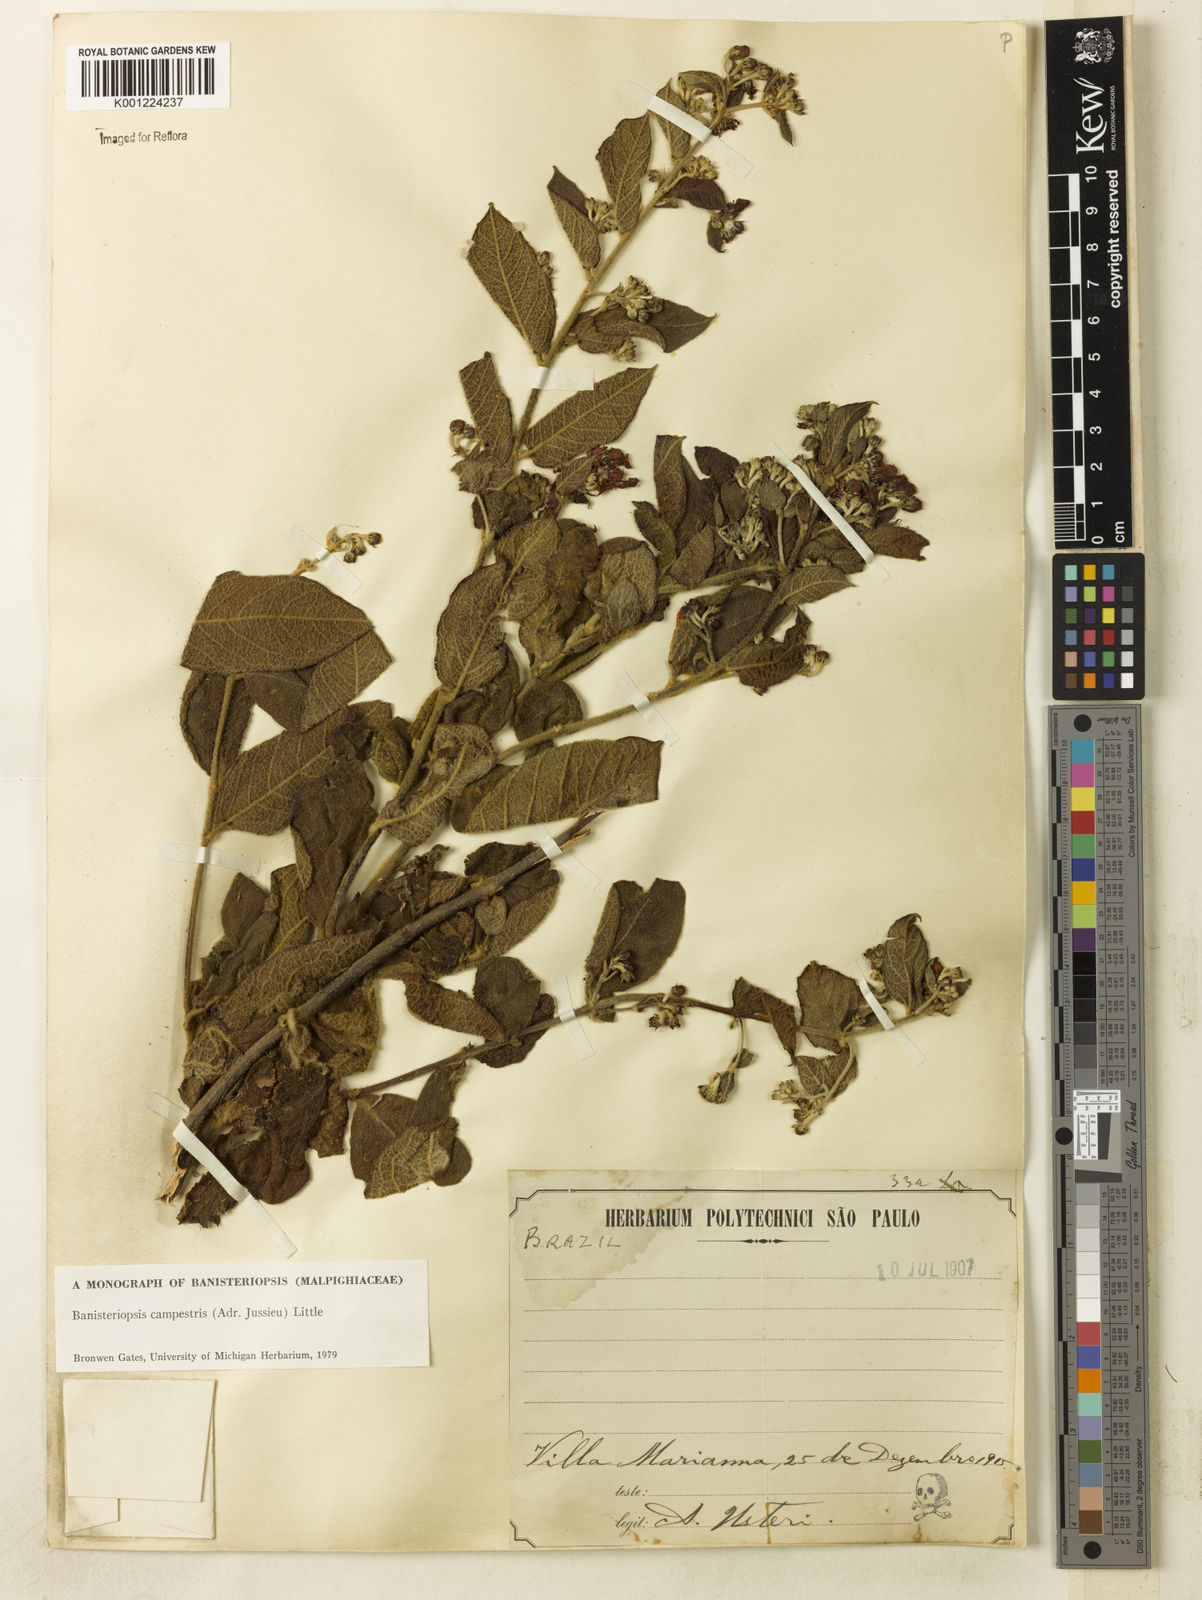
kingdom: Plantae
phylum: Tracheophyta
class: Magnoliopsida
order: Malpighiales
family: Malpighiaceae
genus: Banisteriopsis
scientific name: Banisteriopsis campestris
